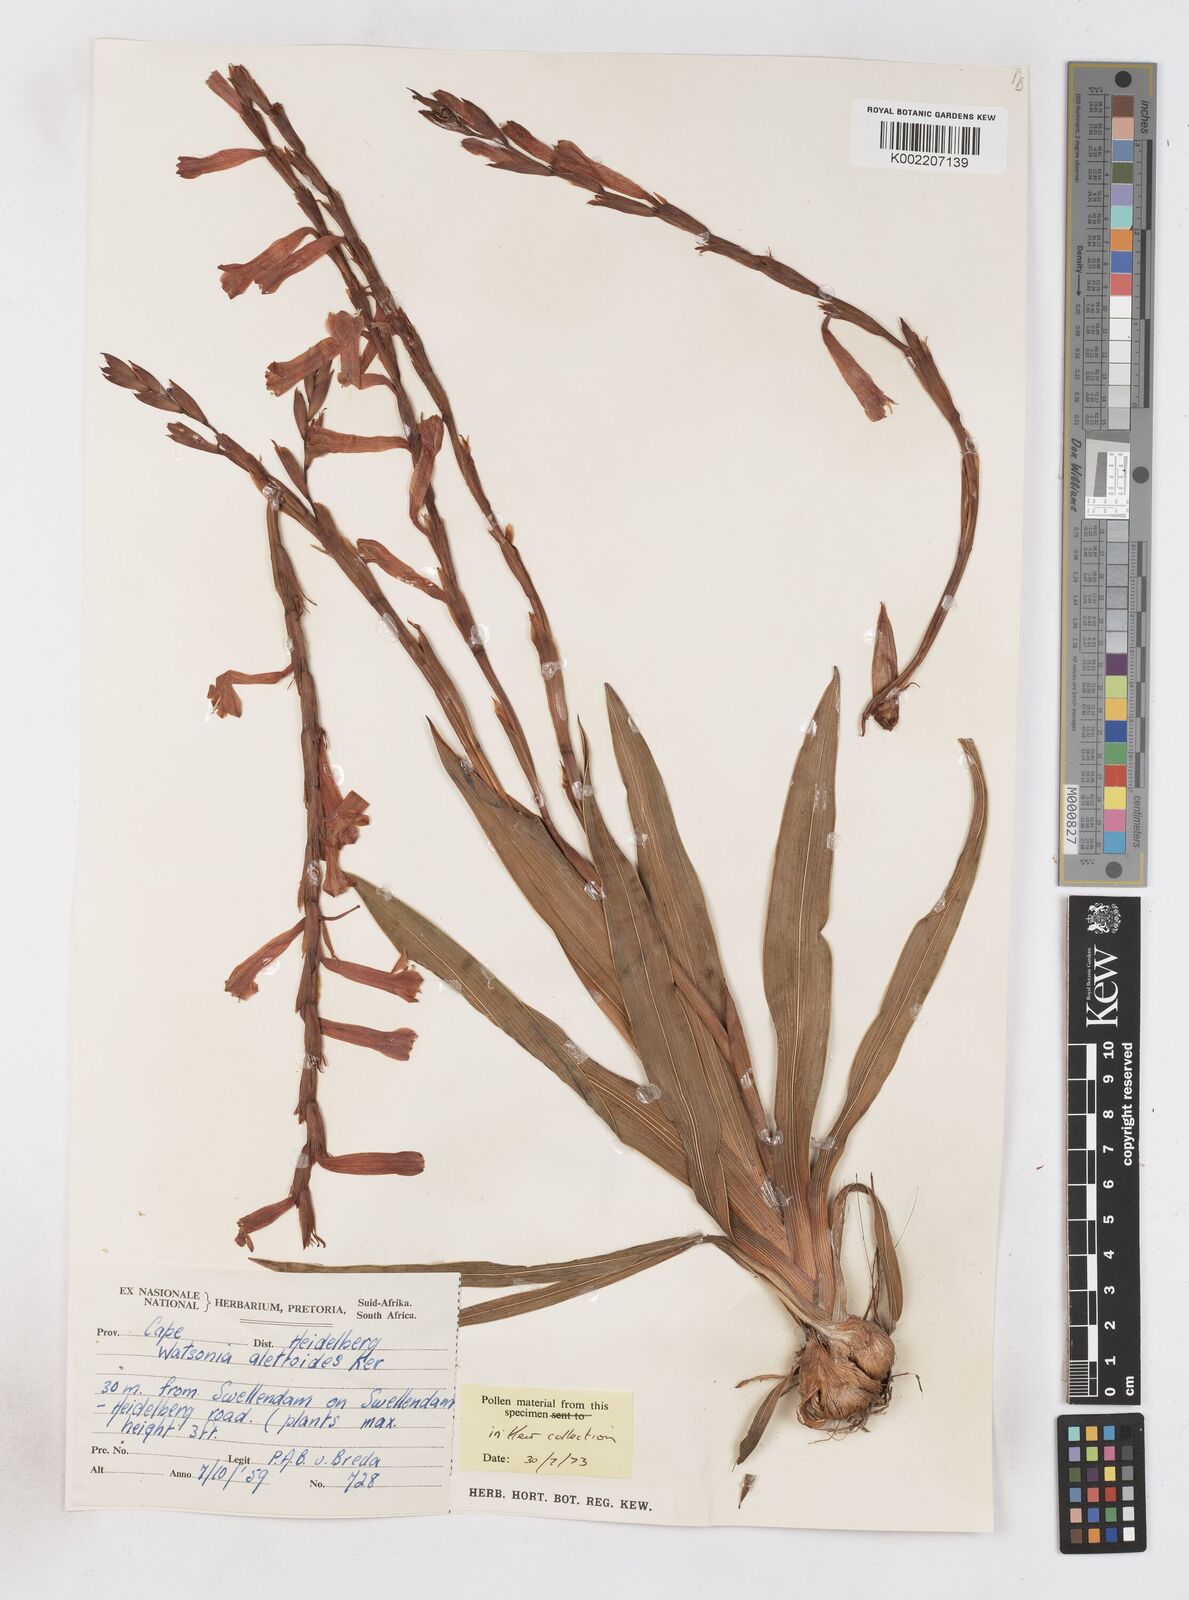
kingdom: Plantae
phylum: Tracheophyta
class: Liliopsida
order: Asparagales
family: Iridaceae
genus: Watsonia
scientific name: Watsonia aletroides
